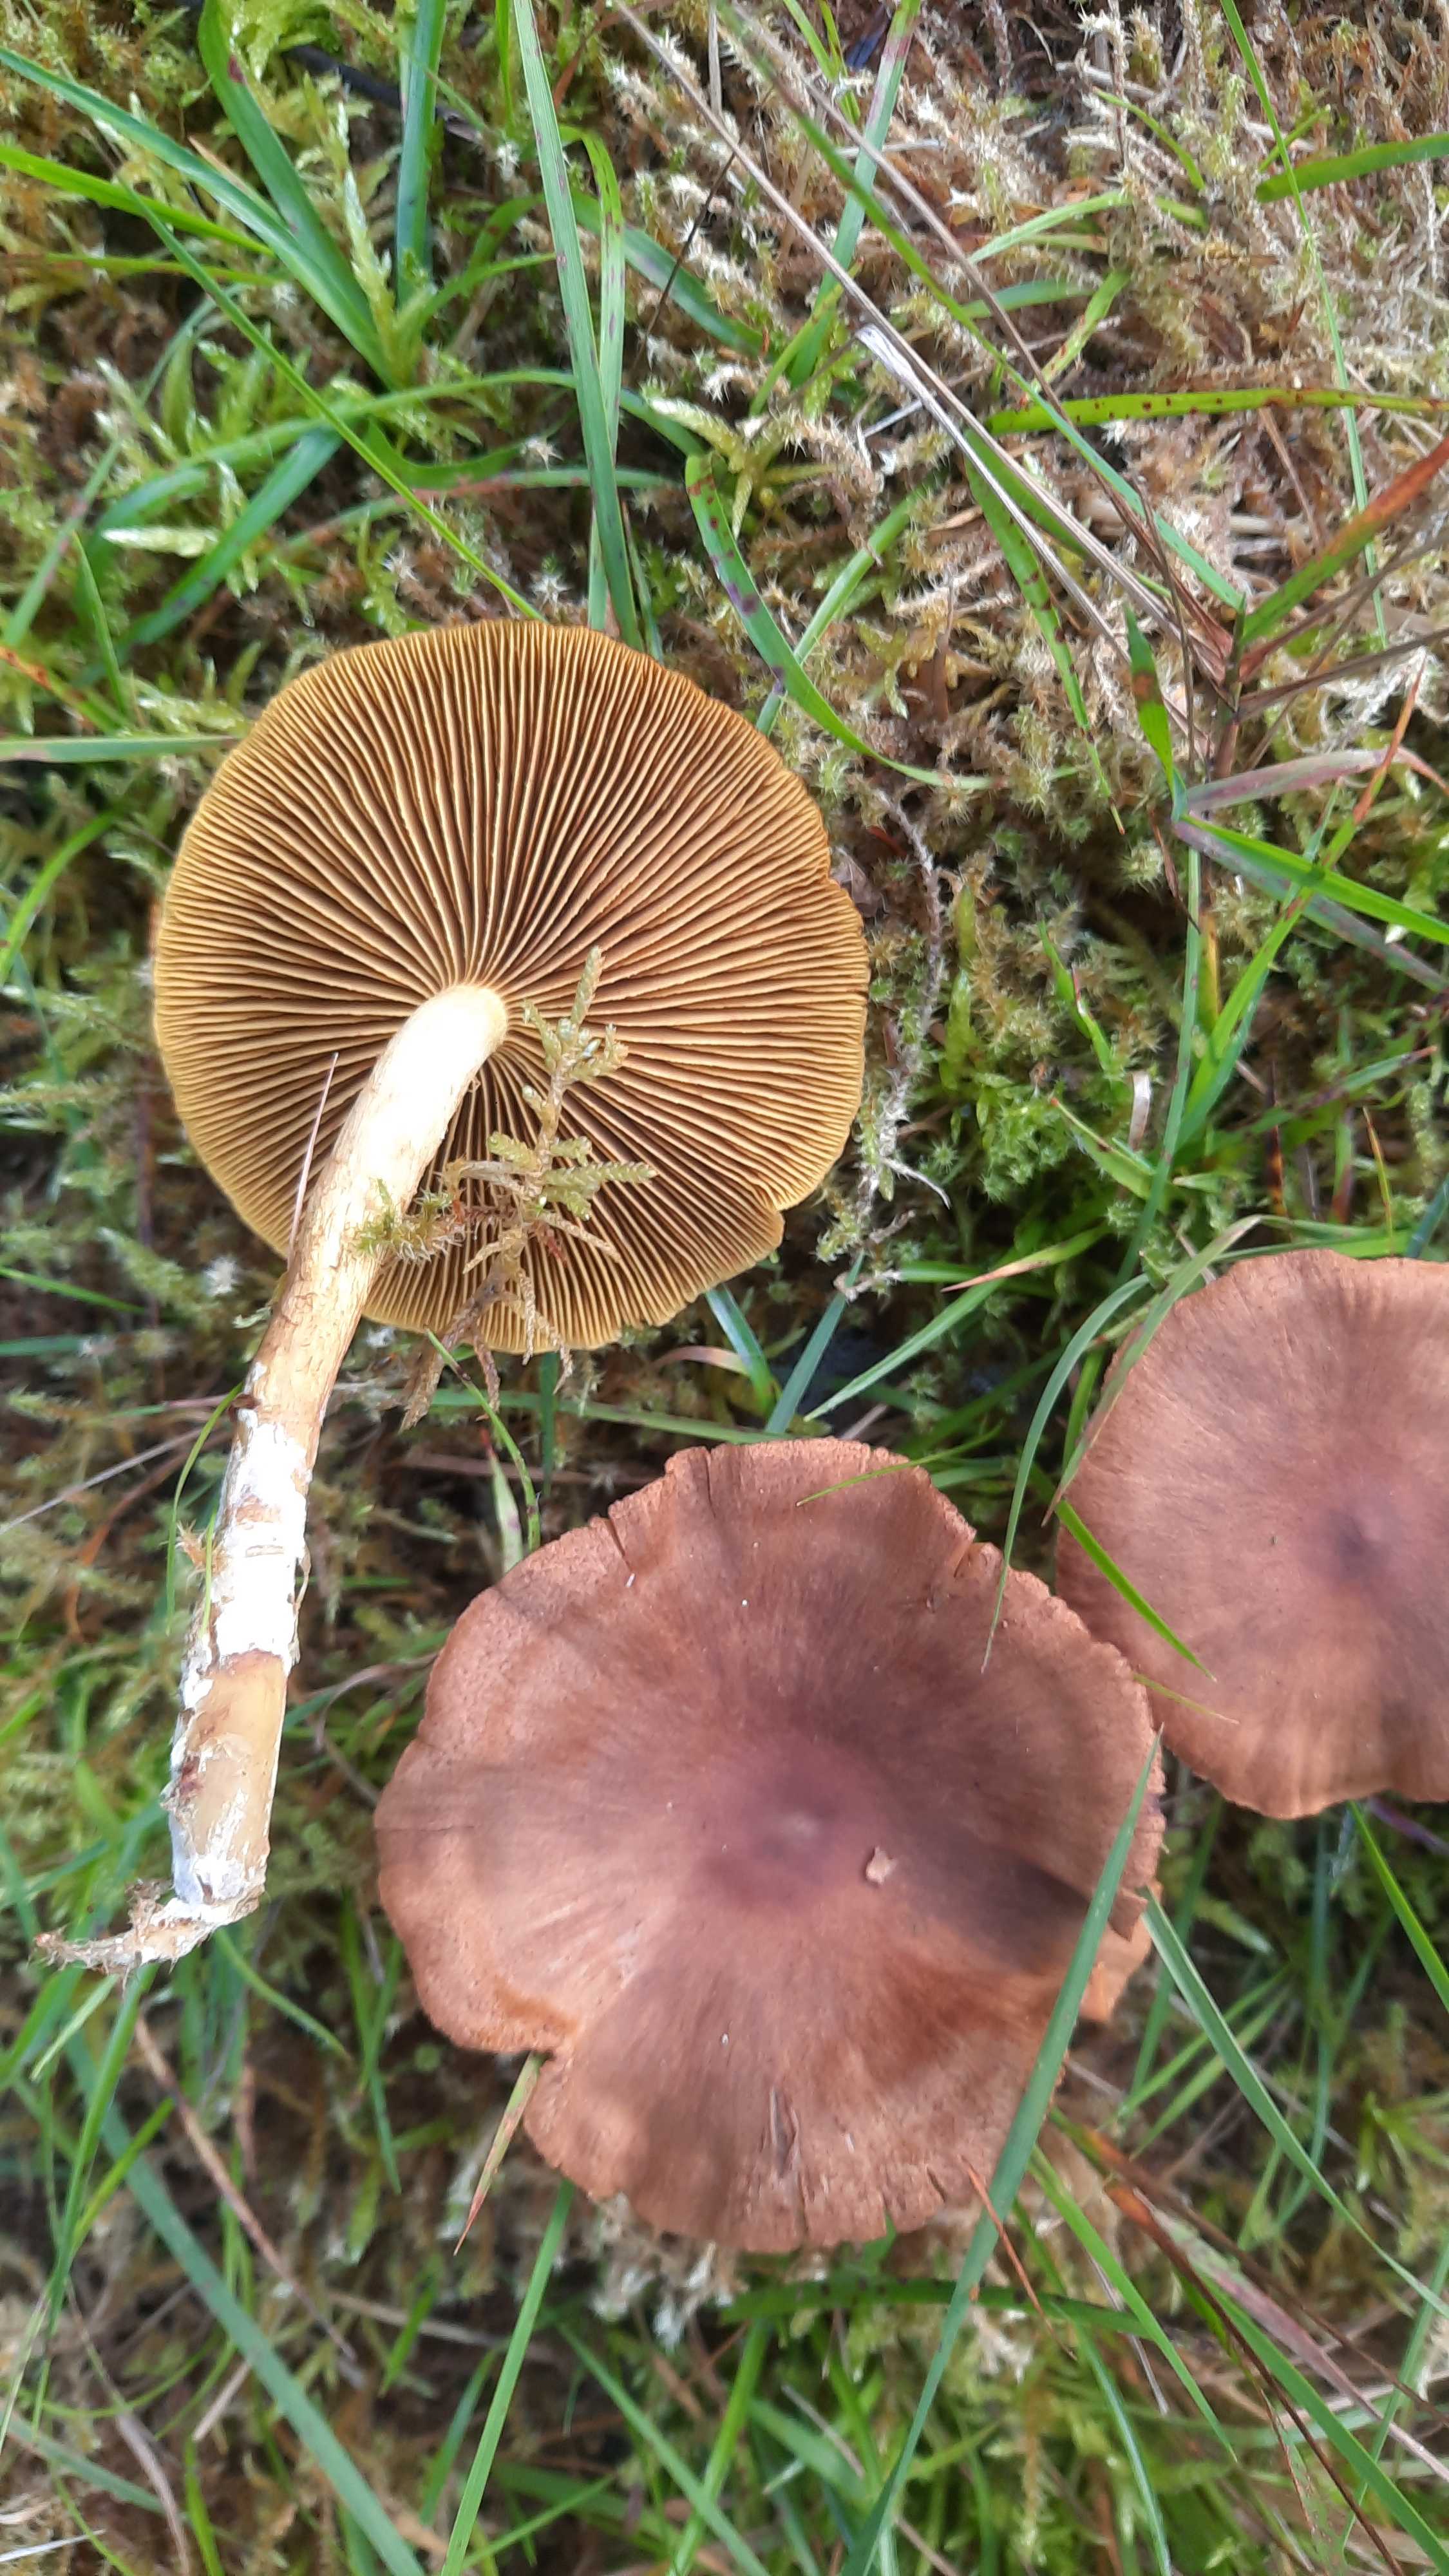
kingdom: Fungi
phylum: Basidiomycota
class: Agaricomycetes
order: Agaricales
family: Cortinariaceae
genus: Cortinarius
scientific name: Cortinarius
